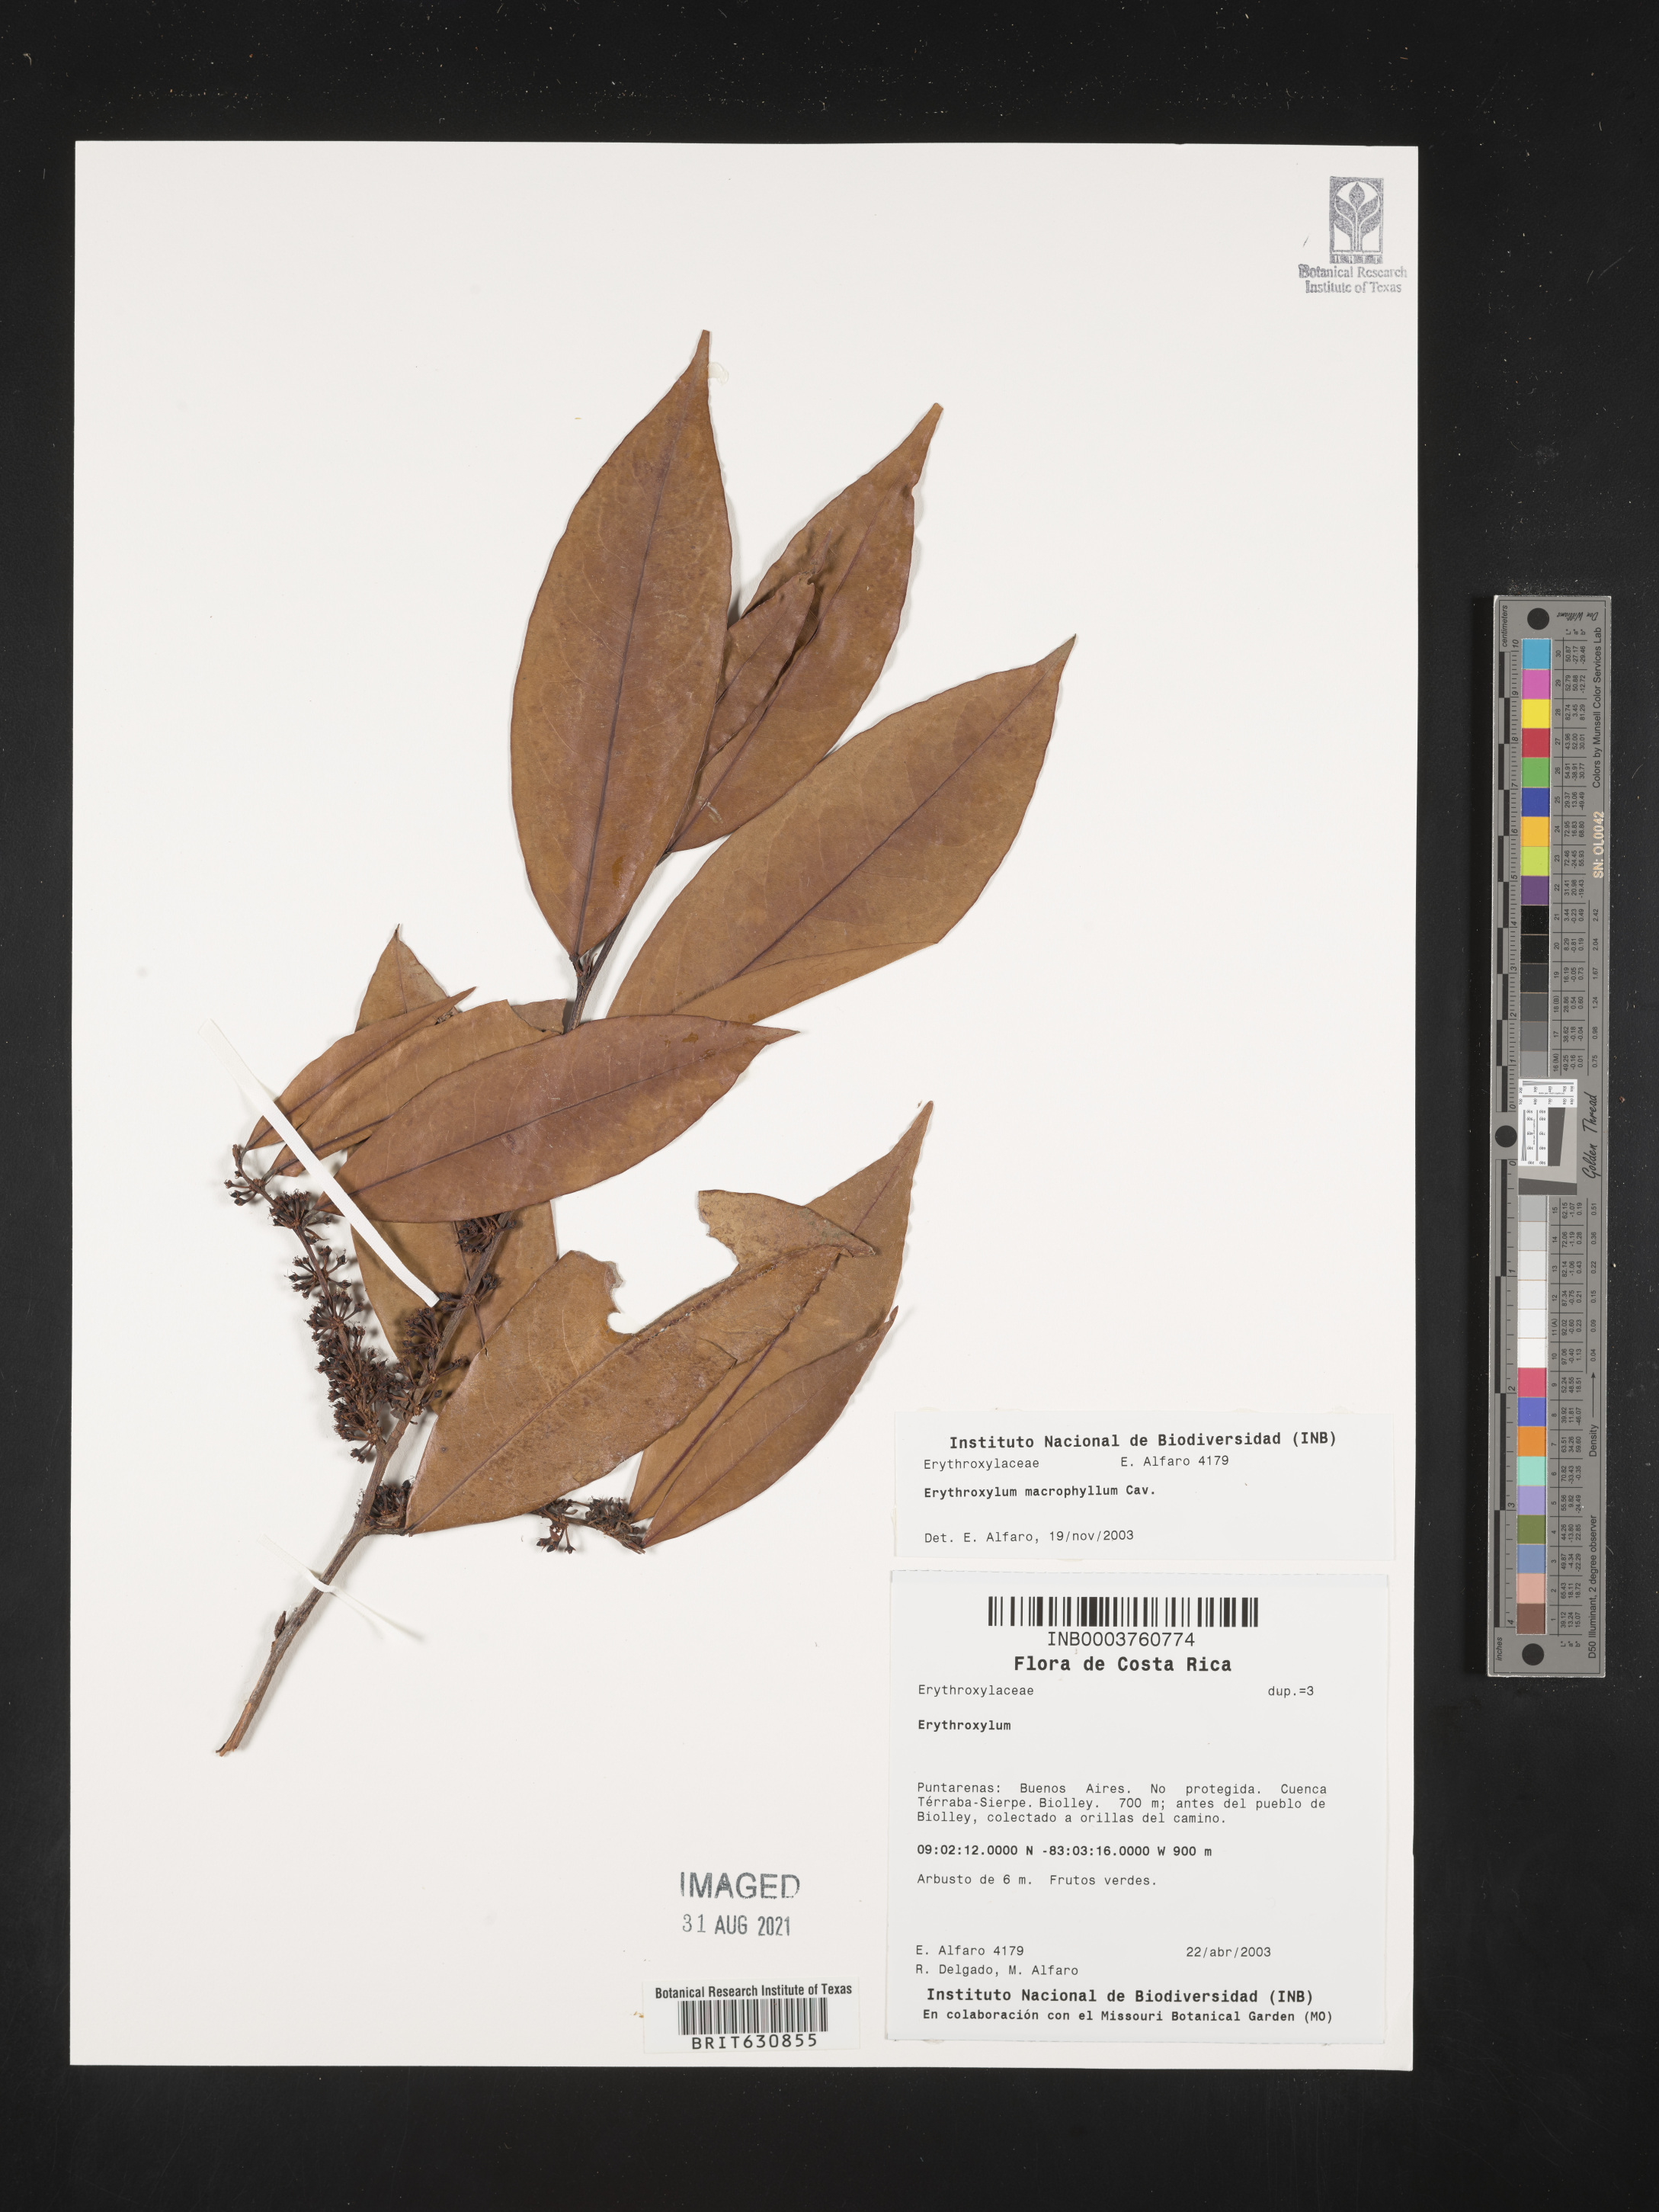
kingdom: Plantae
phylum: Tracheophyta
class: Magnoliopsida
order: Malpighiales
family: Erythroxylaceae
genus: Erythroxylum
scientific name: Erythroxylum
